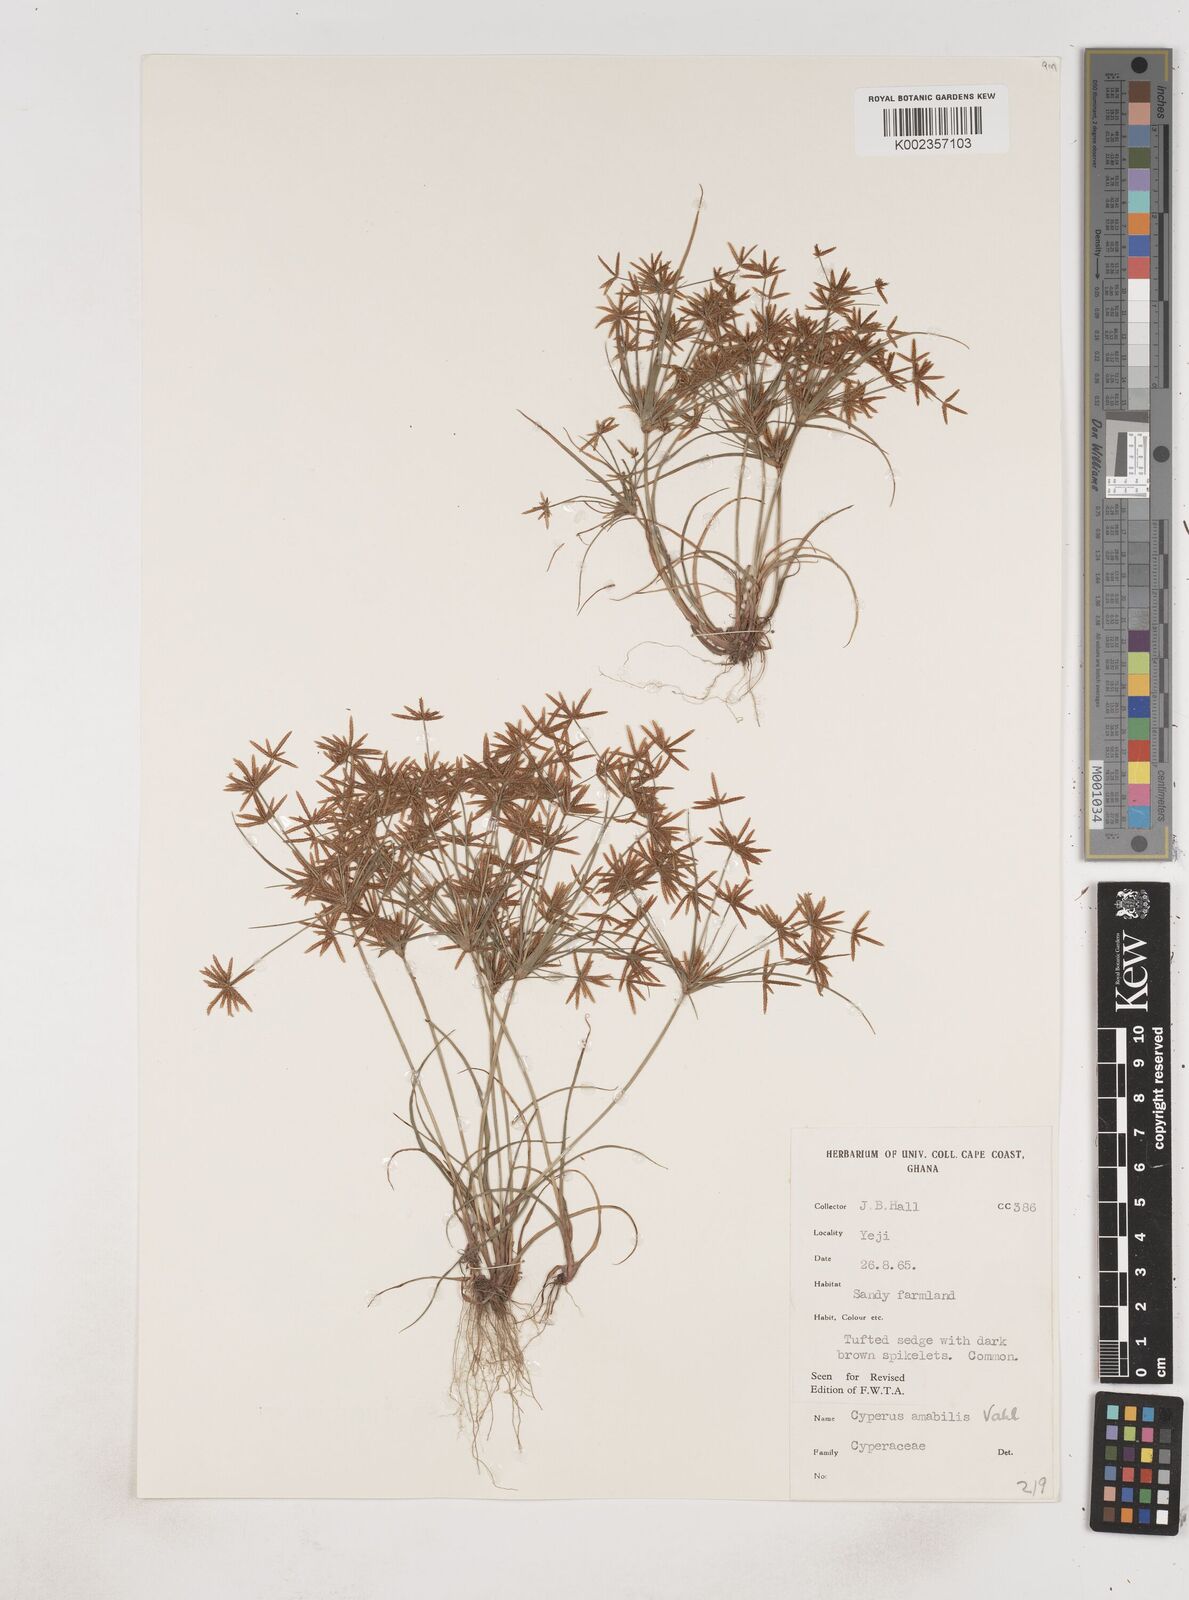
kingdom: Plantae
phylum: Tracheophyta
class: Liliopsida
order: Poales
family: Cyperaceae
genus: Cyperus
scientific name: Cyperus amabilis
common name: Foothill flat sedge
